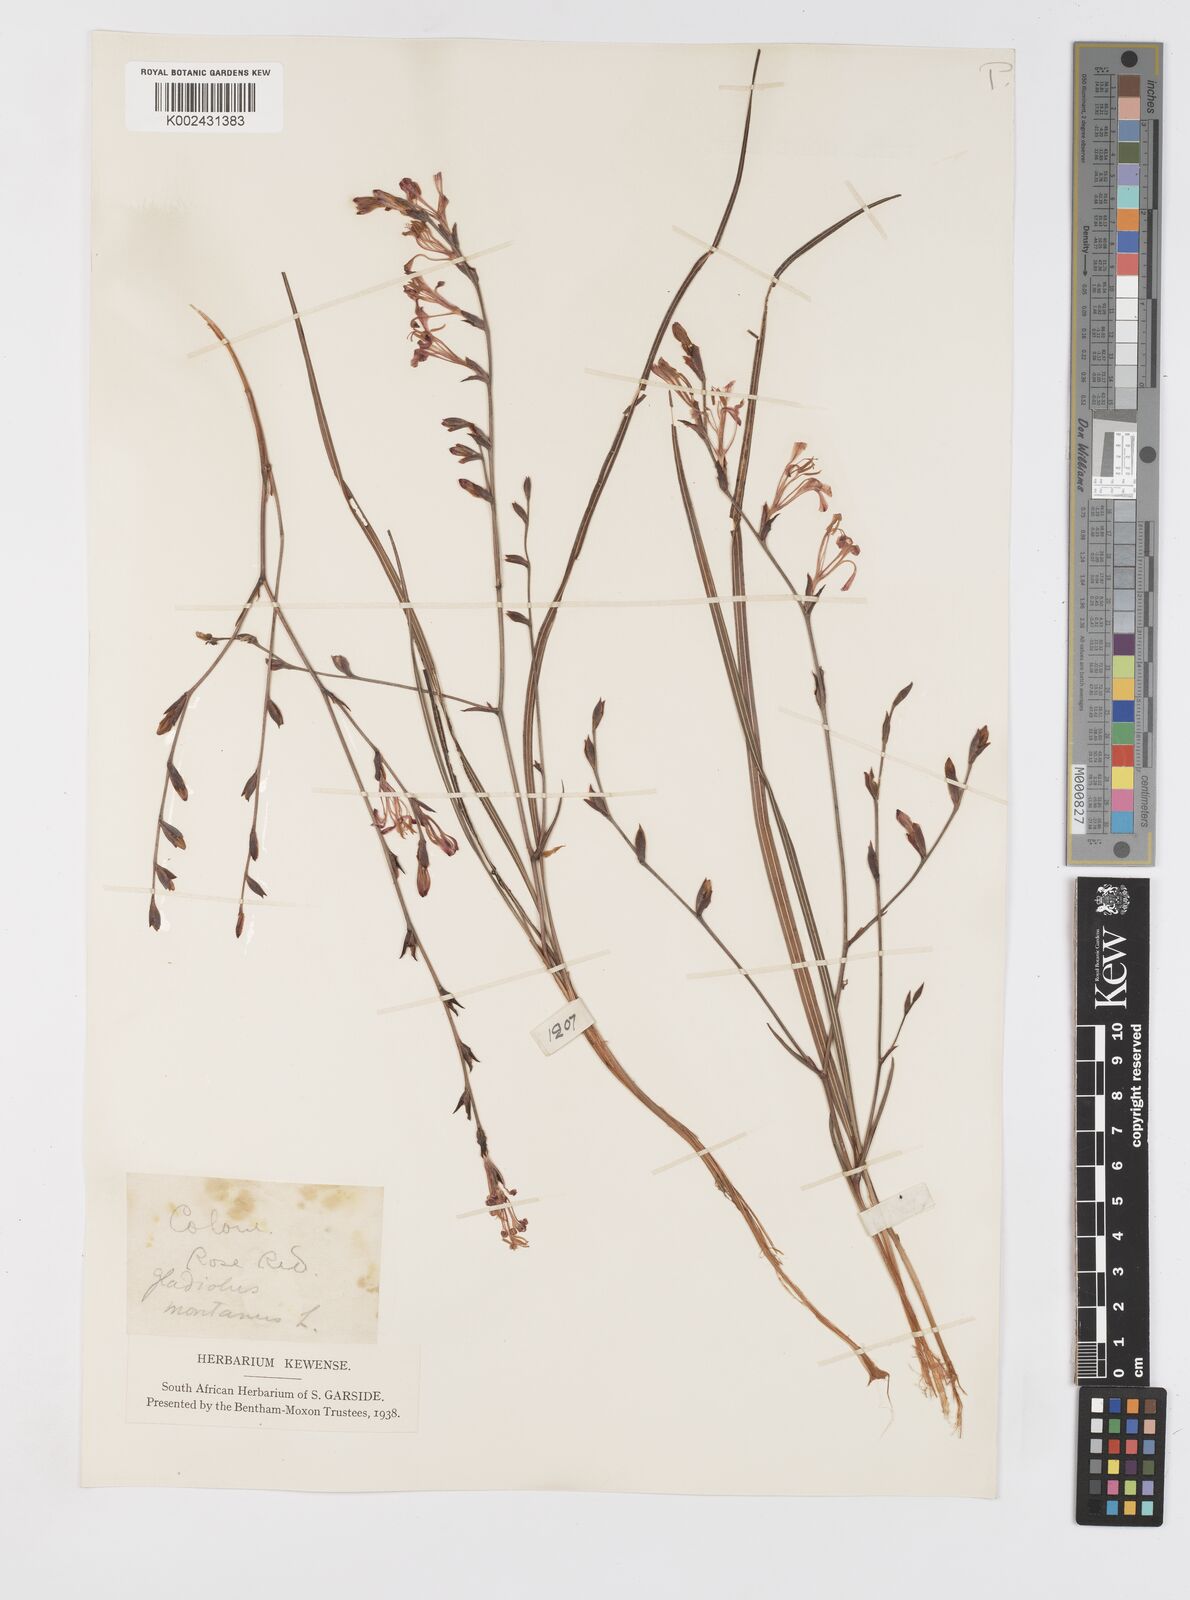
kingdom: Plantae
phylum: Tracheophyta
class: Liliopsida
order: Asparagales
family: Iridaceae
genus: Tritoniopsis
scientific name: Tritoniopsis ramosa
